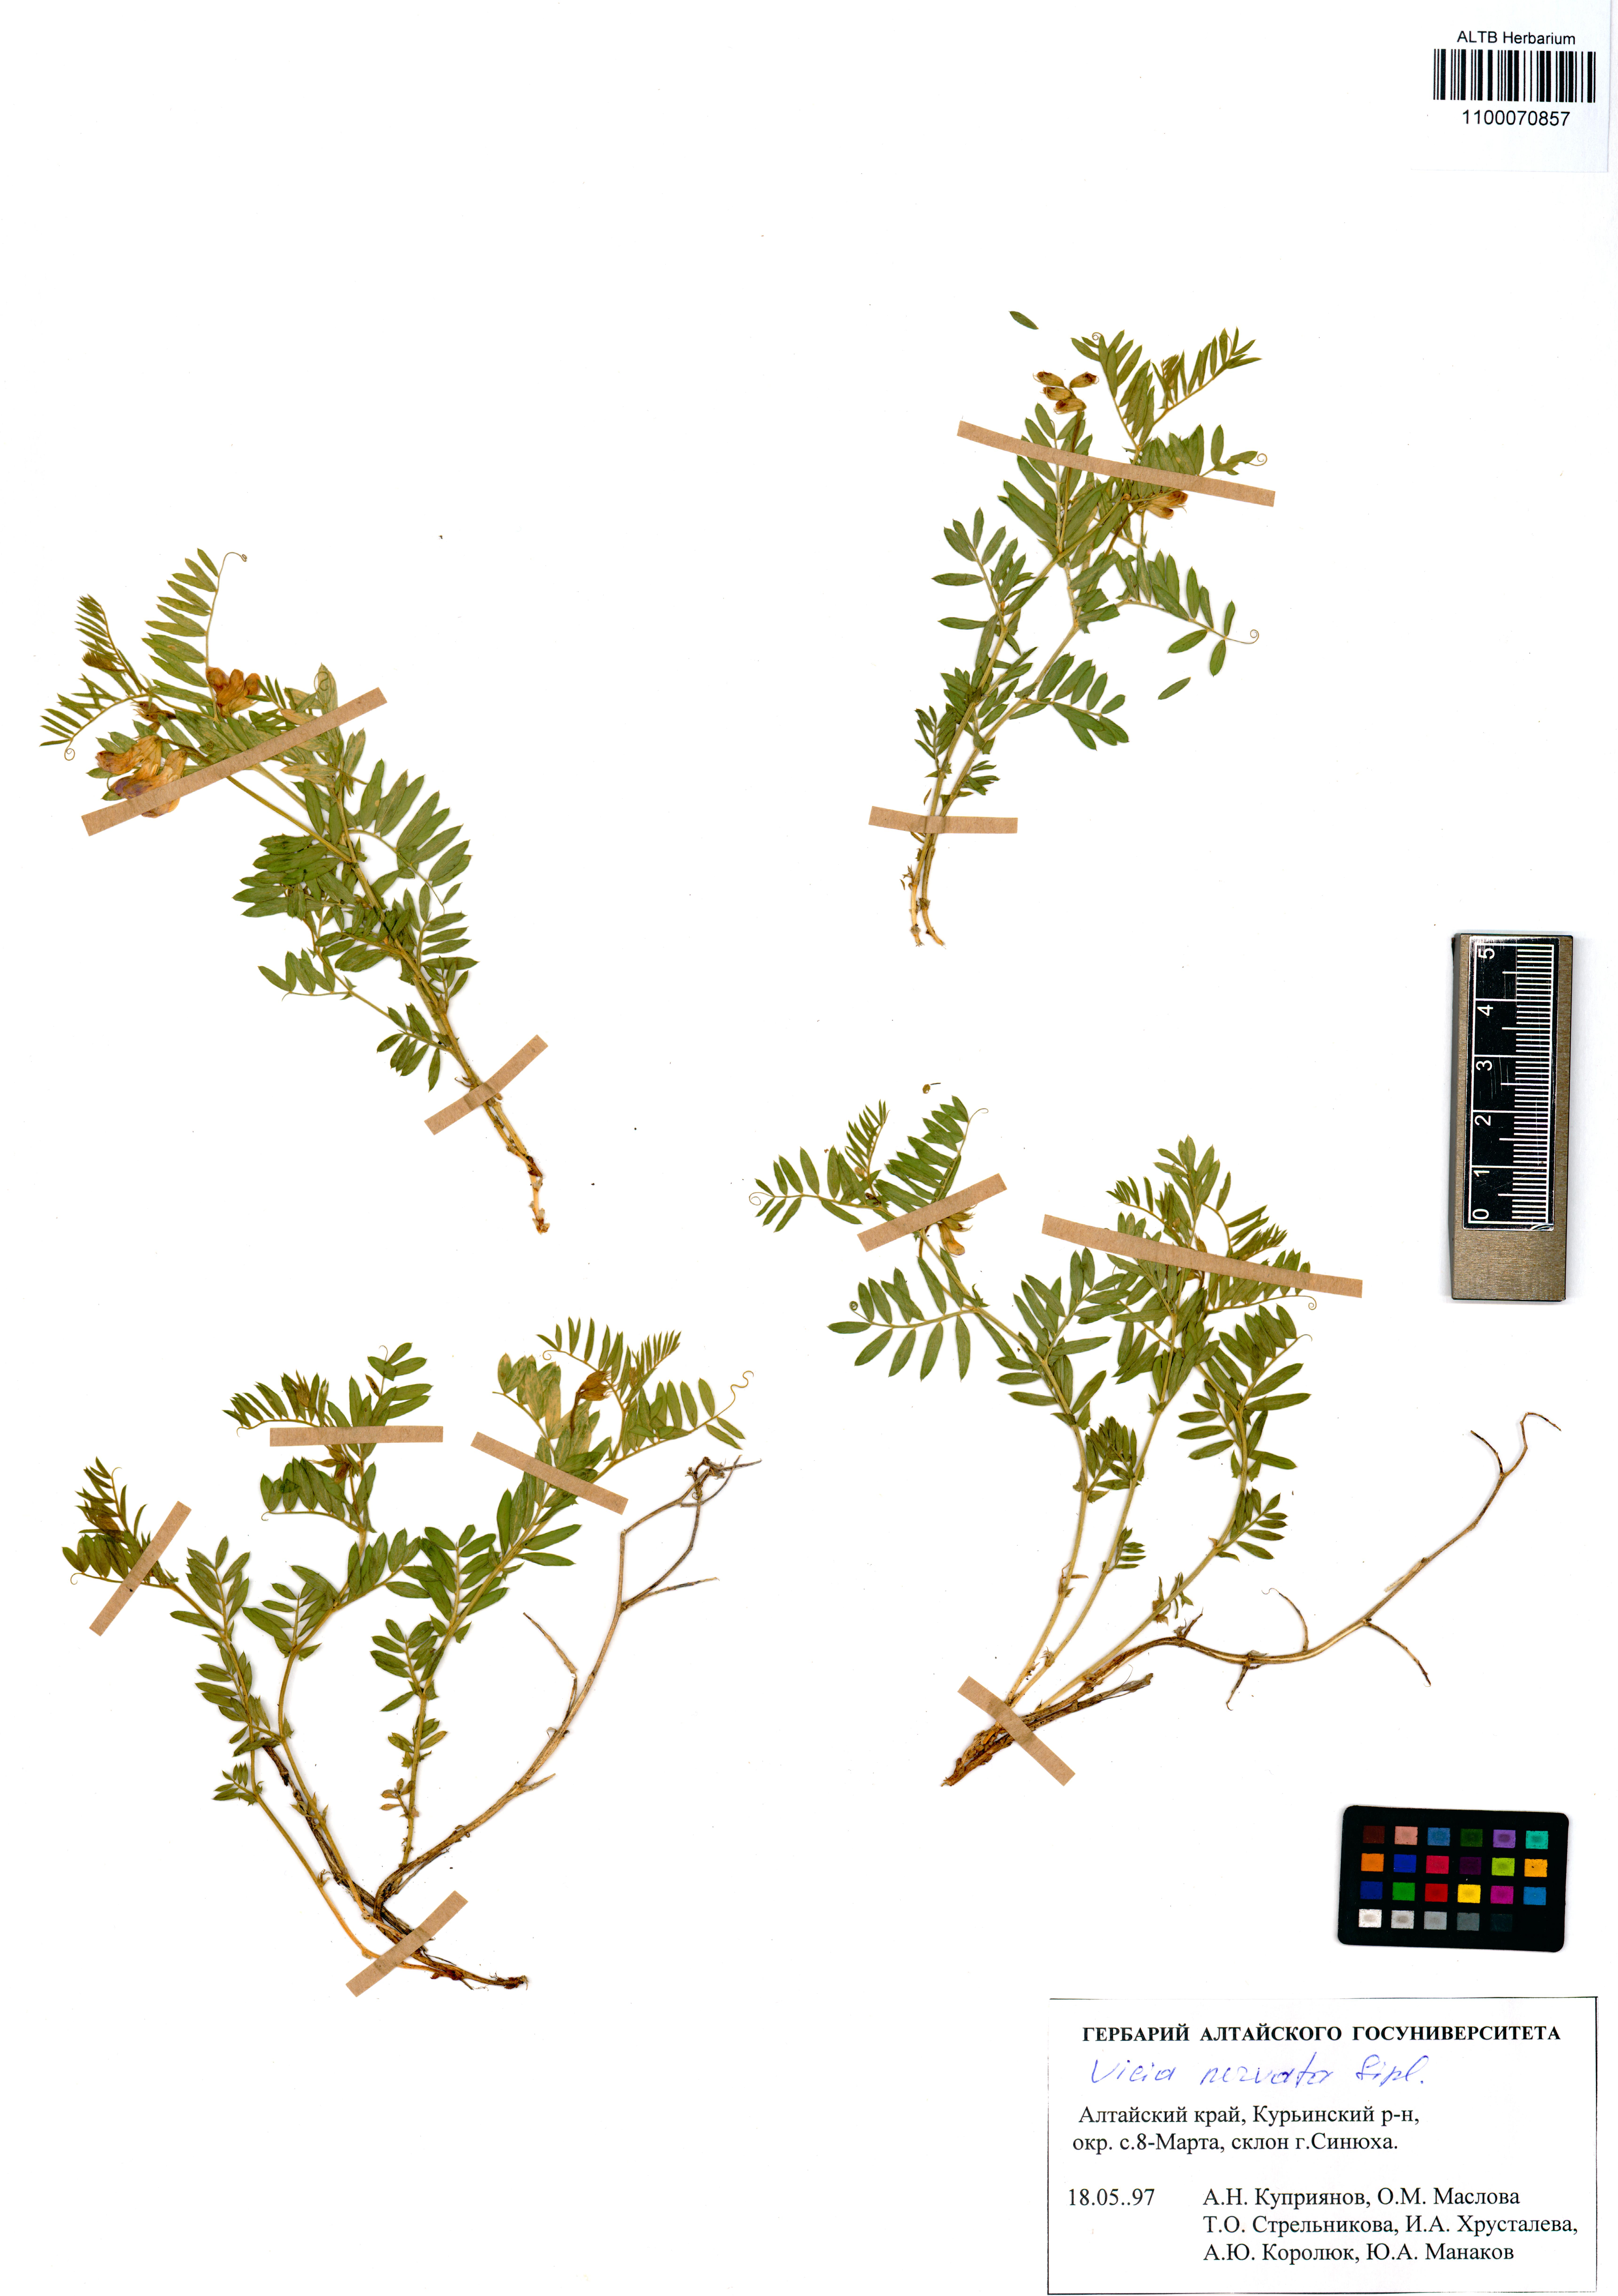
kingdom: Plantae
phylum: Tracheophyta
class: Magnoliopsida
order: Fabales
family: Fabaceae
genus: Vicia
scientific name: Vicia multicaulis
